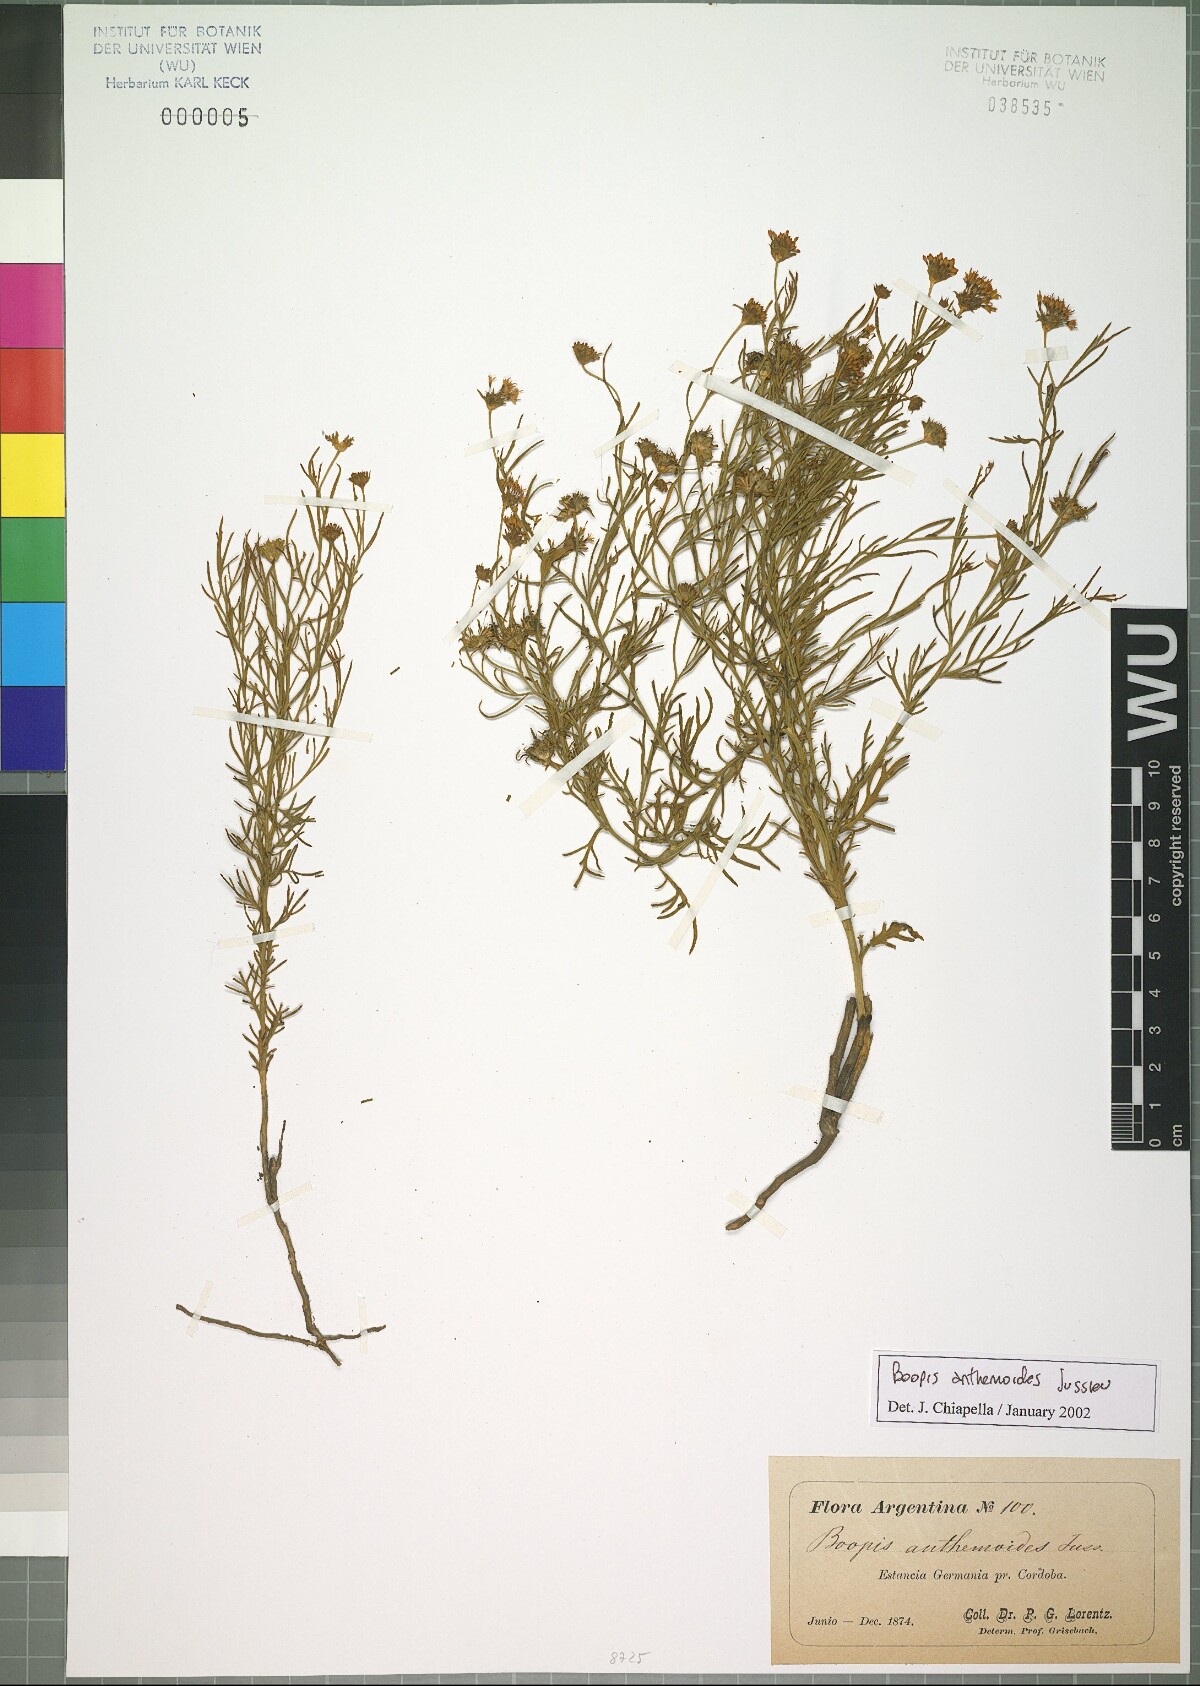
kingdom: Plantae
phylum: Tracheophyta
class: Magnoliopsida
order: Asterales
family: Calyceraceae
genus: Boopis
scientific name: Boopis anthemoides
